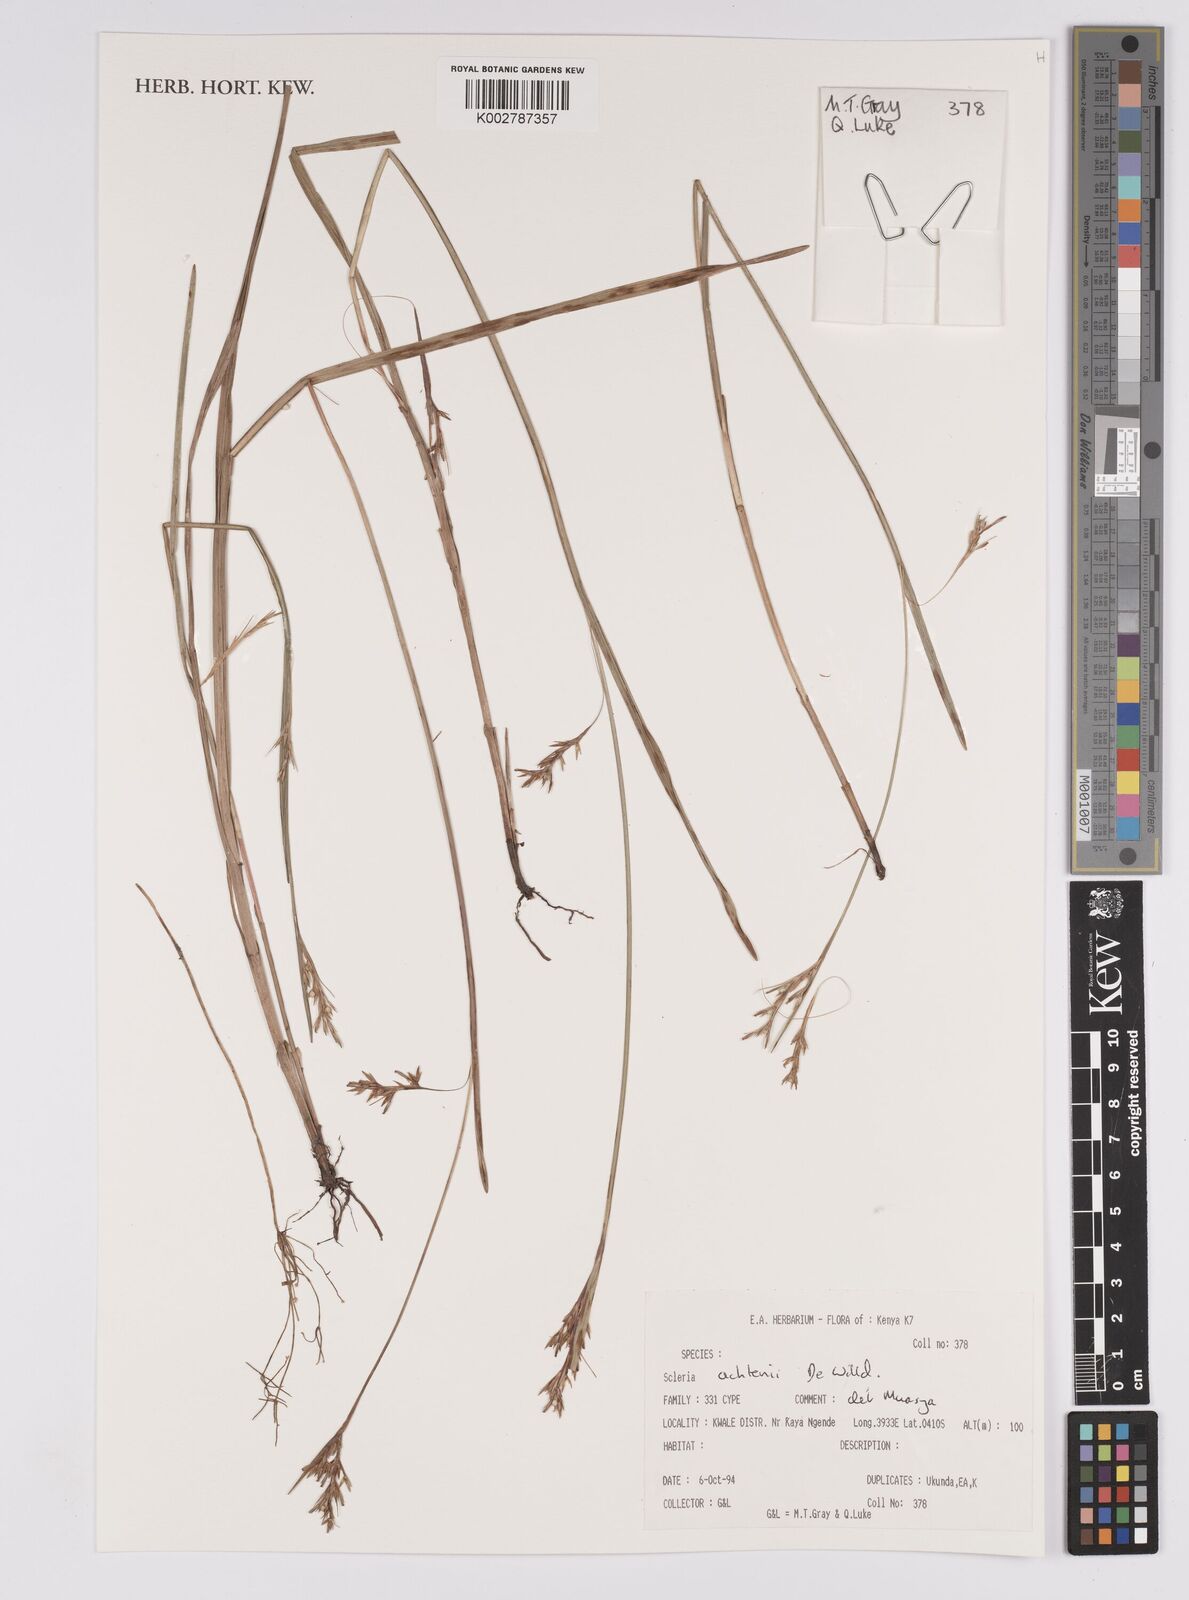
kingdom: Plantae
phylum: Tracheophyta
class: Liliopsida
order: Poales
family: Cyperaceae
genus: Scleria
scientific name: Scleria achtenii
